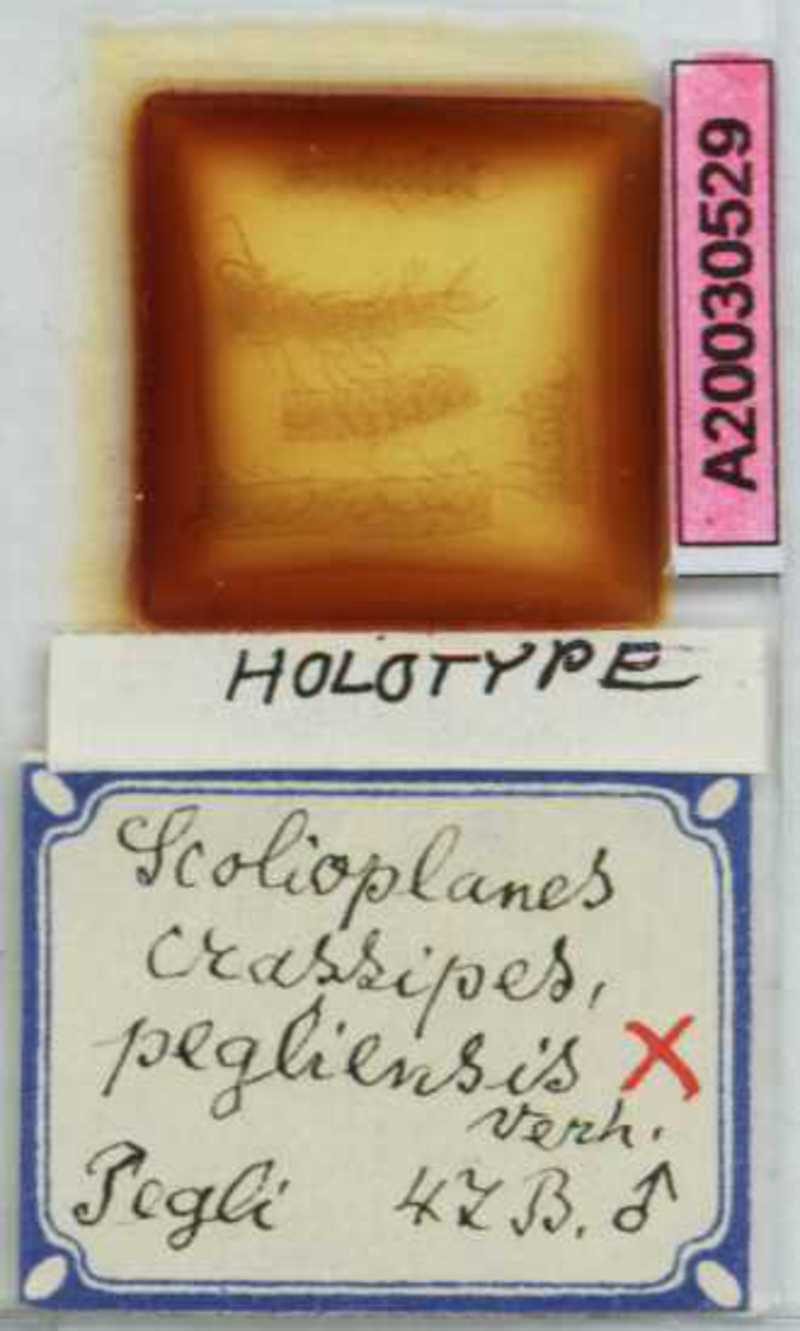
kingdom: Animalia
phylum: Arthropoda
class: Chilopoda
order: Geophilomorpha
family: Linotaeniidae
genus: Strigamia
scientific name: Strigamia crassipes
